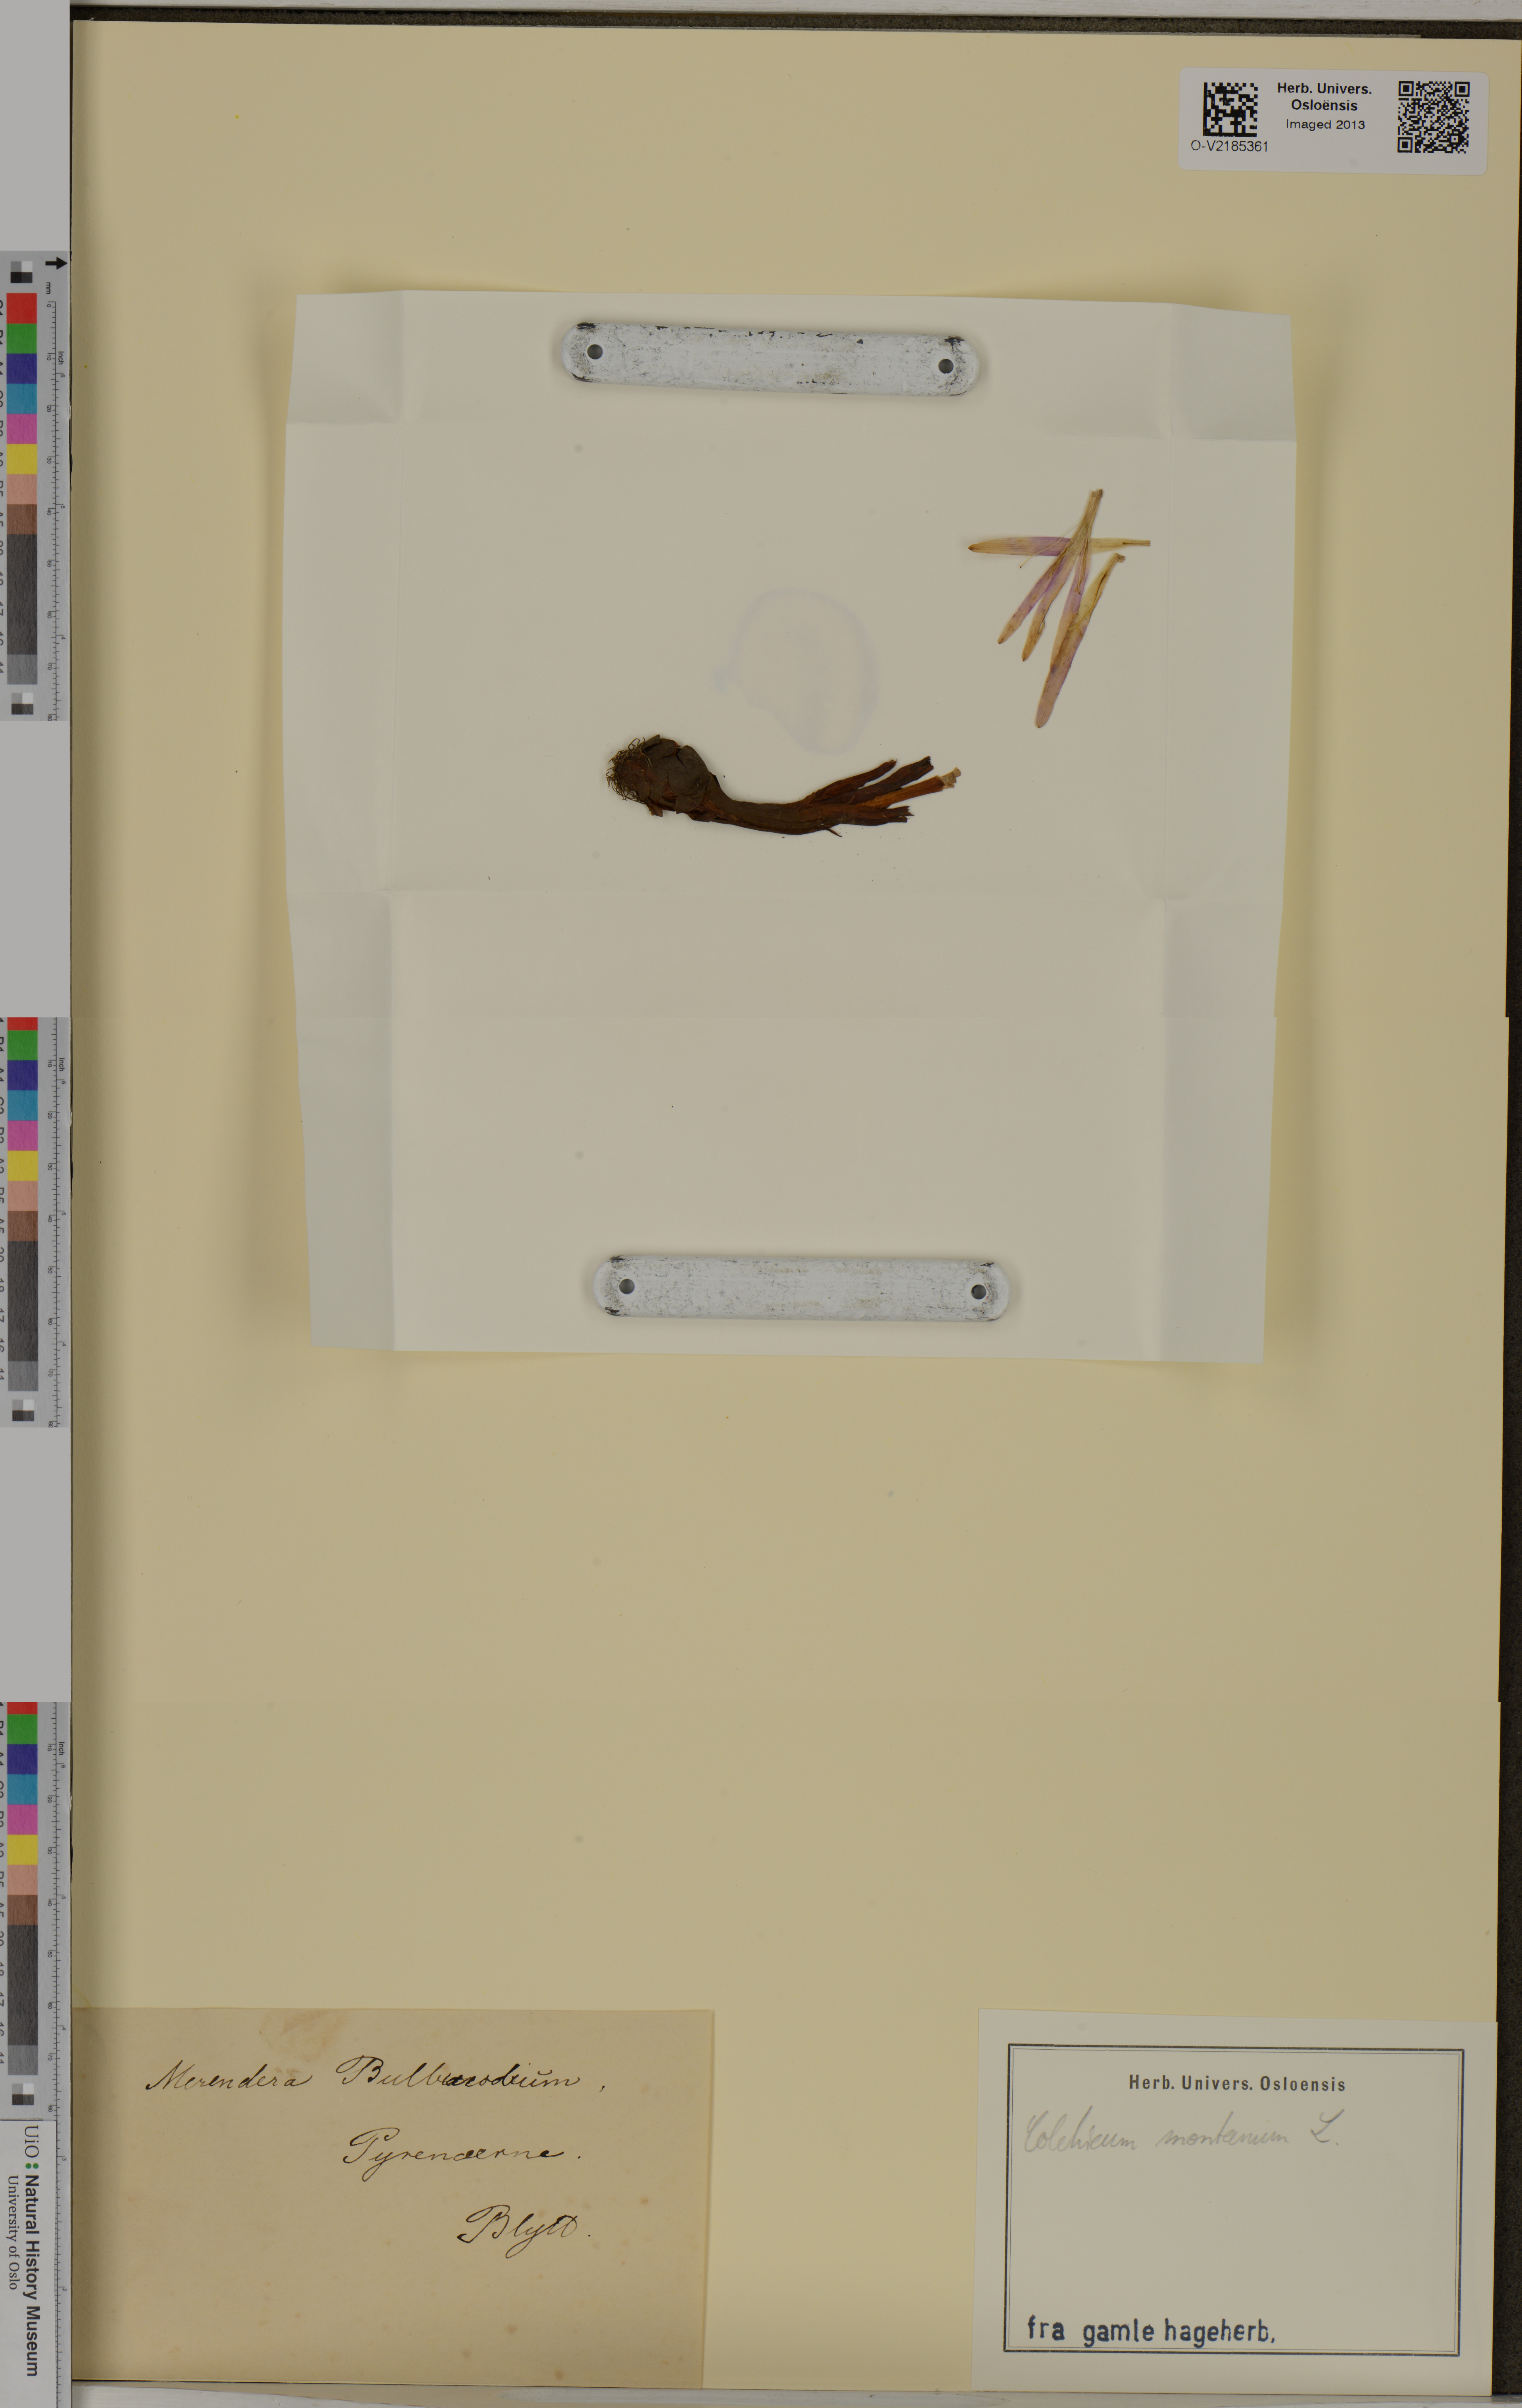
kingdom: Plantae
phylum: Tracheophyta
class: Liliopsida
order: Liliales
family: Colchicaceae
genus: Colchicum
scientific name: Colchicum autumnale
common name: Autumn crocus
